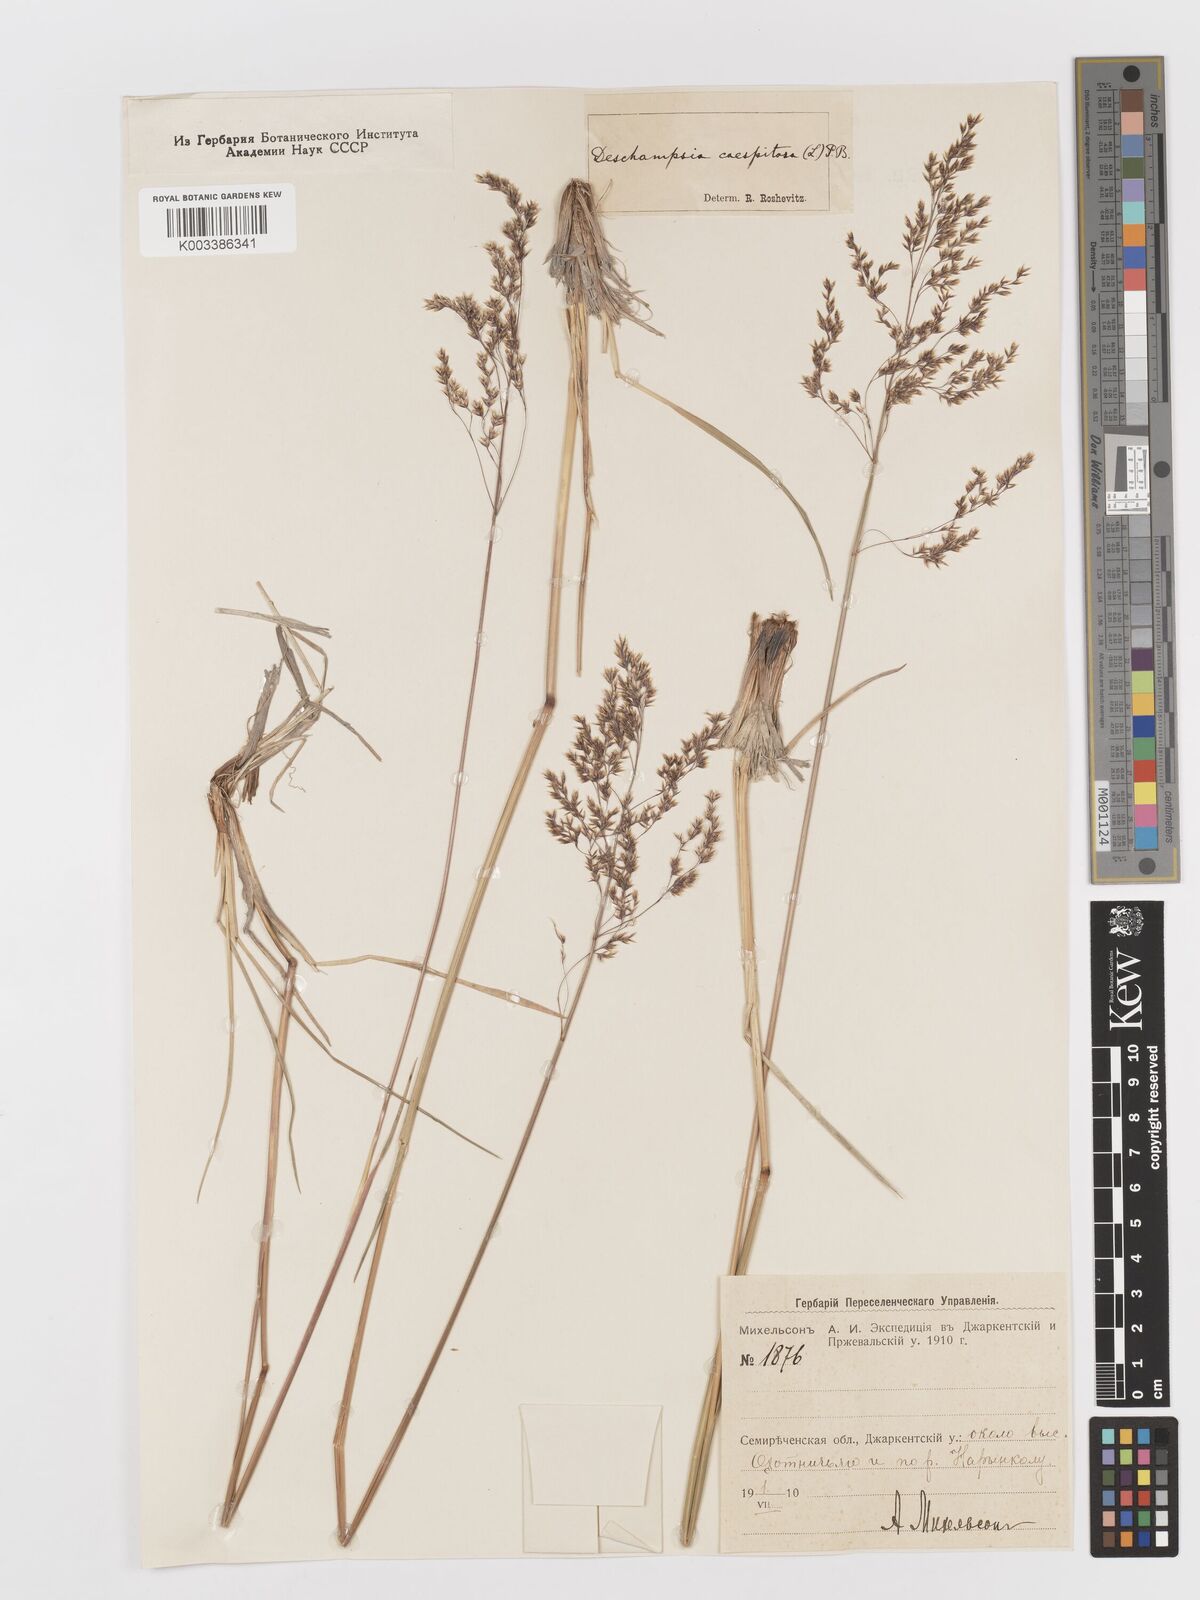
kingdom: Plantae
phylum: Tracheophyta
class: Liliopsida
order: Poales
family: Poaceae
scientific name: Poaceae
